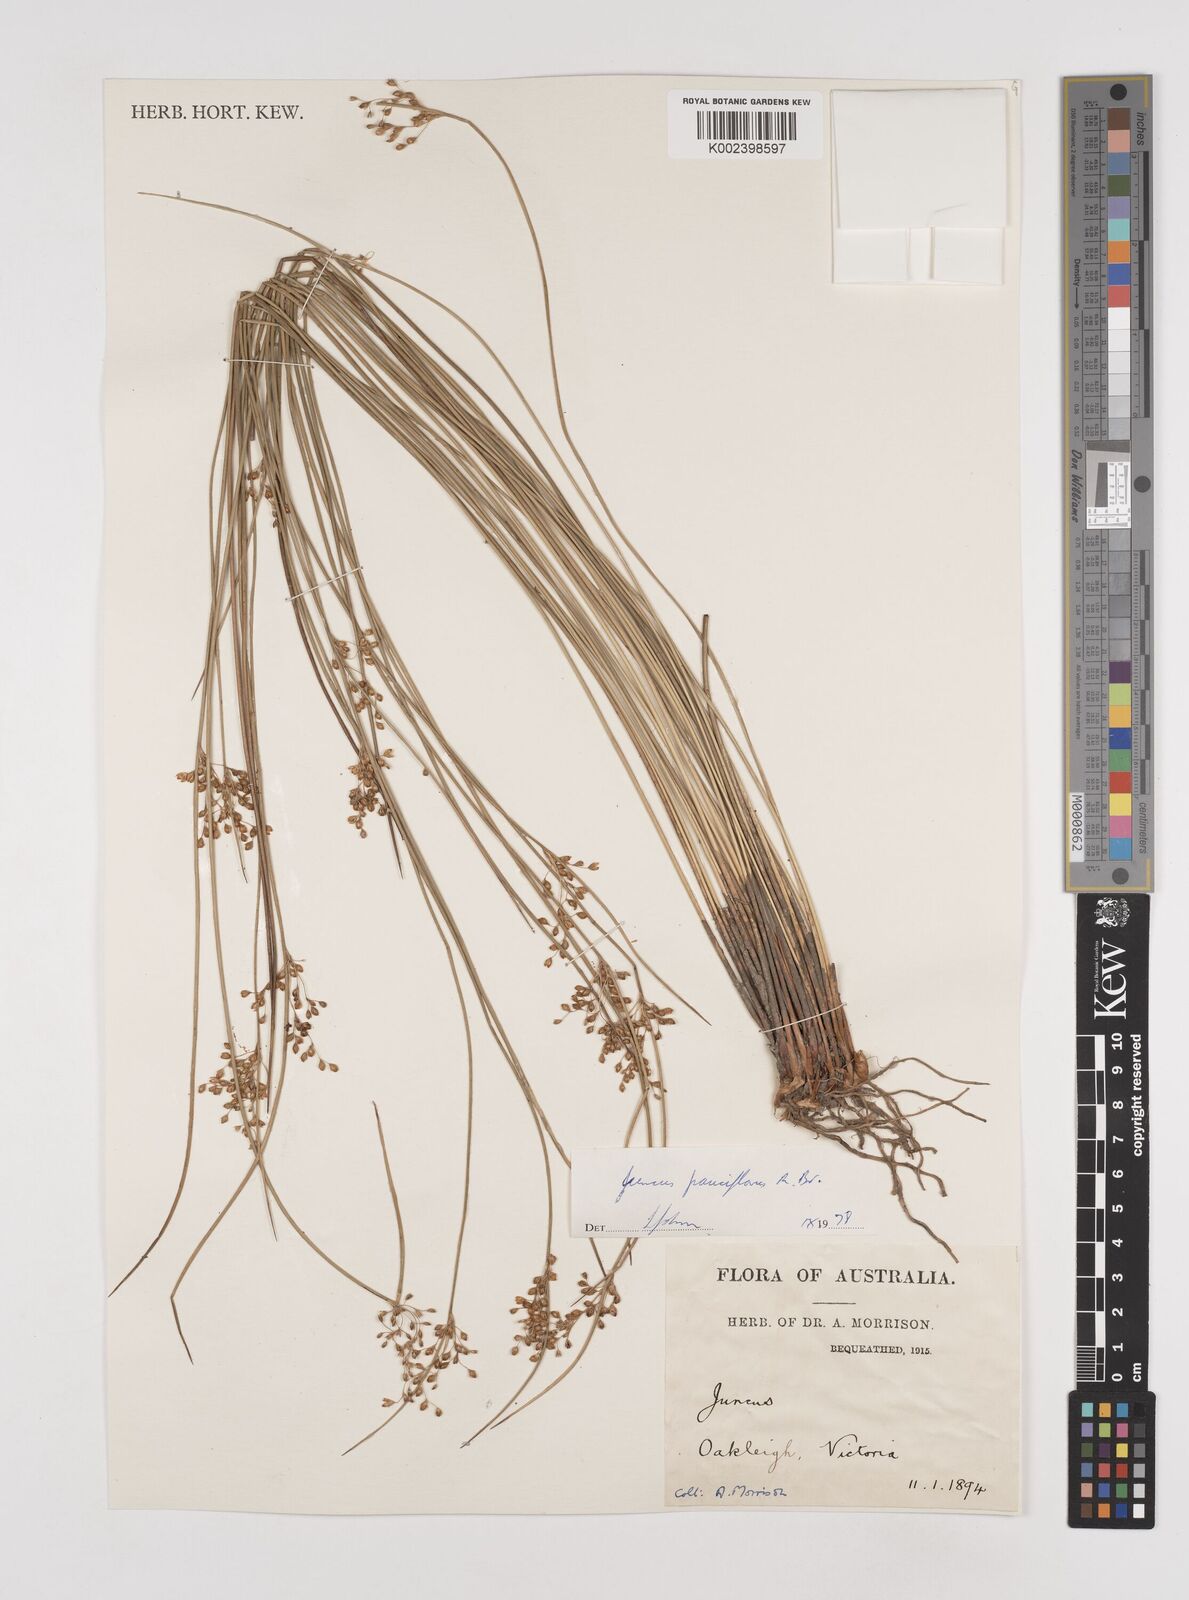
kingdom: Plantae
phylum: Tracheophyta
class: Liliopsida
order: Poales
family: Juncaceae
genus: Juncus
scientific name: Juncus pauciflorus
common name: Loose-flowered rush
